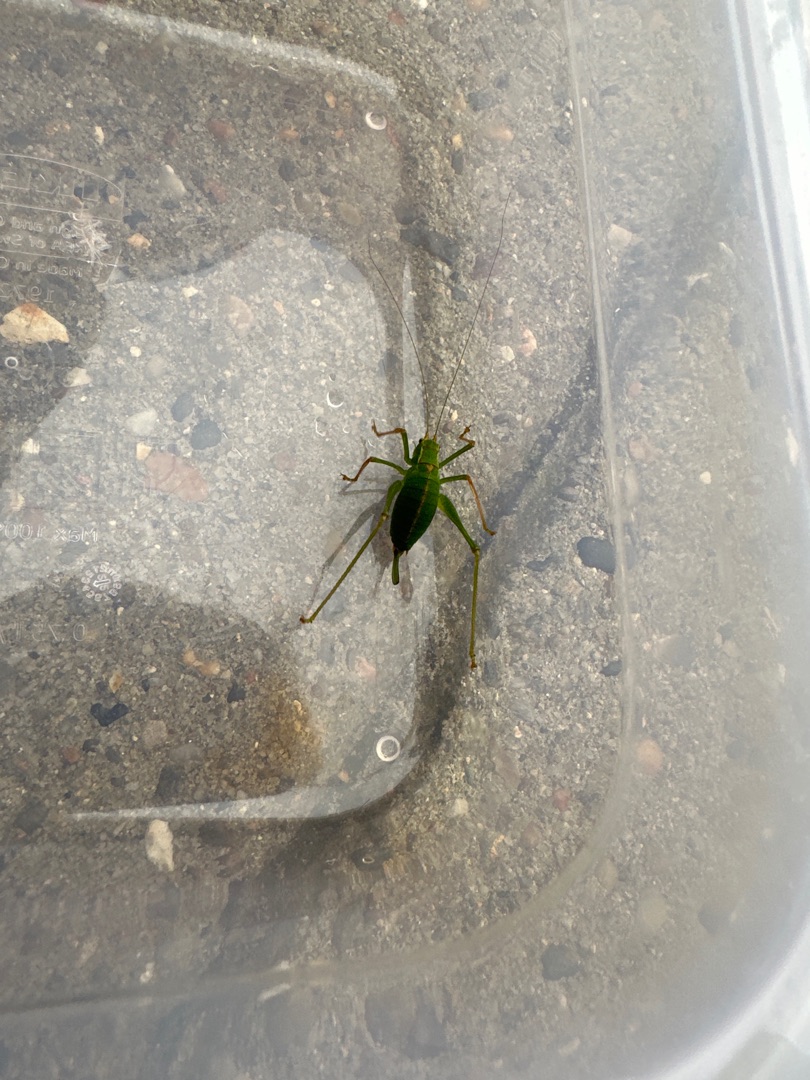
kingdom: Animalia
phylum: Arthropoda
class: Insecta
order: Orthoptera
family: Tettigoniidae
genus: Leptophyes
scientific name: Leptophyes punctatissima
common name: Krumknivgræshoppe
